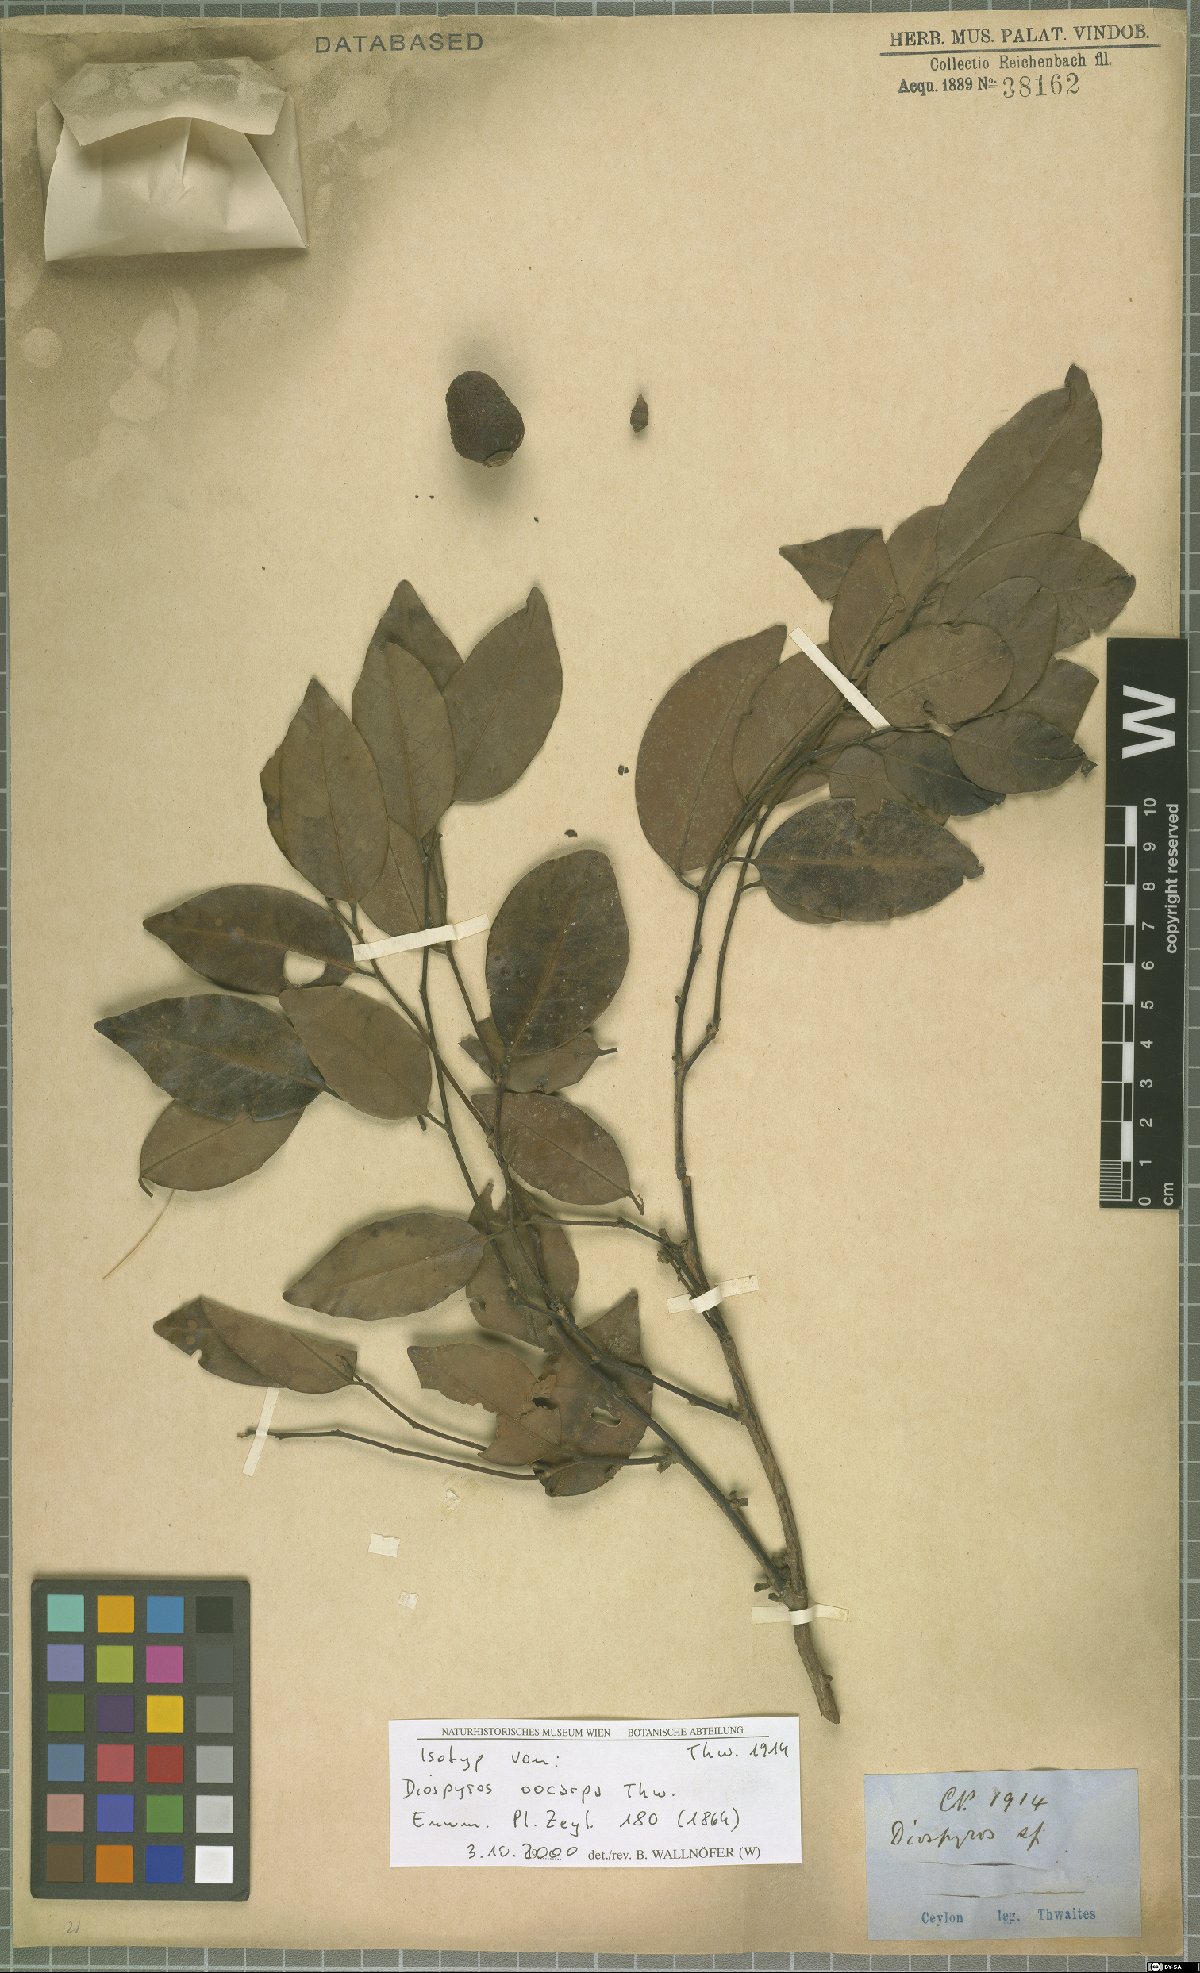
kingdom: Plantae
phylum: Tracheophyta
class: Magnoliopsida
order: Ericales
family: Ebenaceae
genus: Diospyros
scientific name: Diospyros oocarpa
